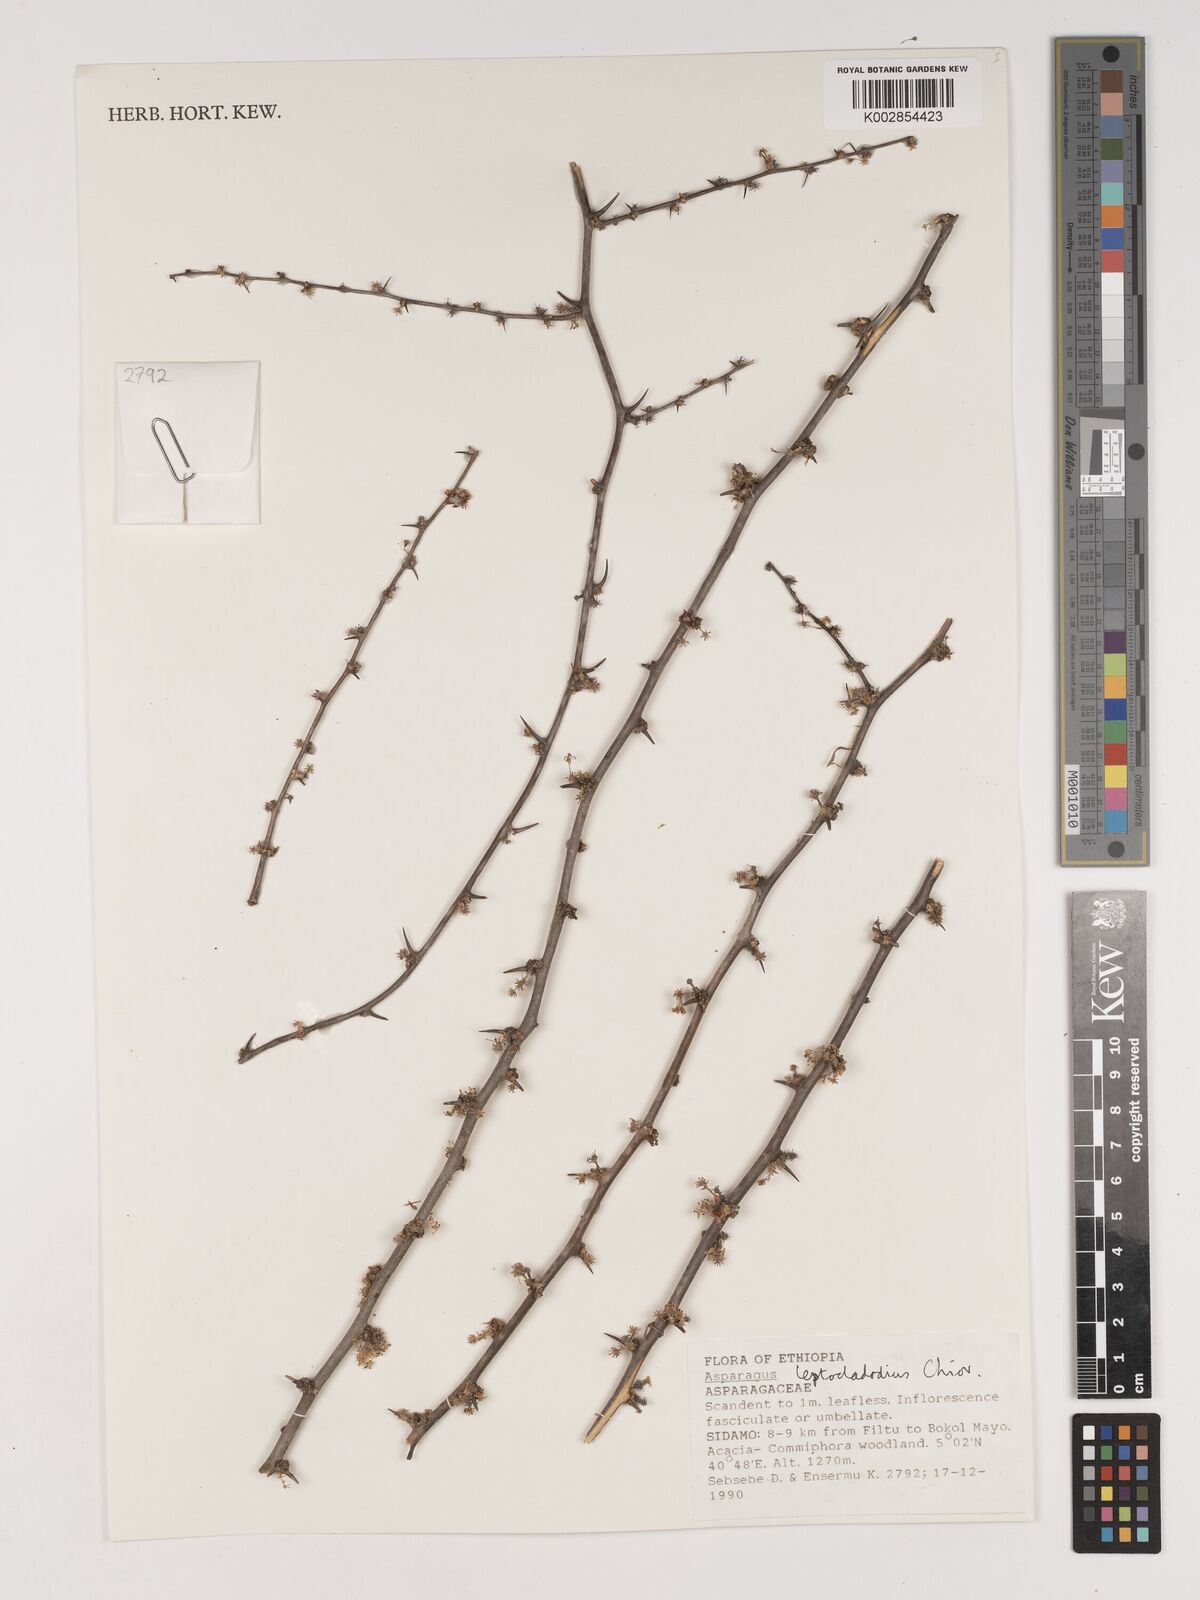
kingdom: Plantae
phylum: Tracheophyta
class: Liliopsida
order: Asparagales
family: Asparagaceae
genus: Asparagus
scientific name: Asparagus leptocladodius
